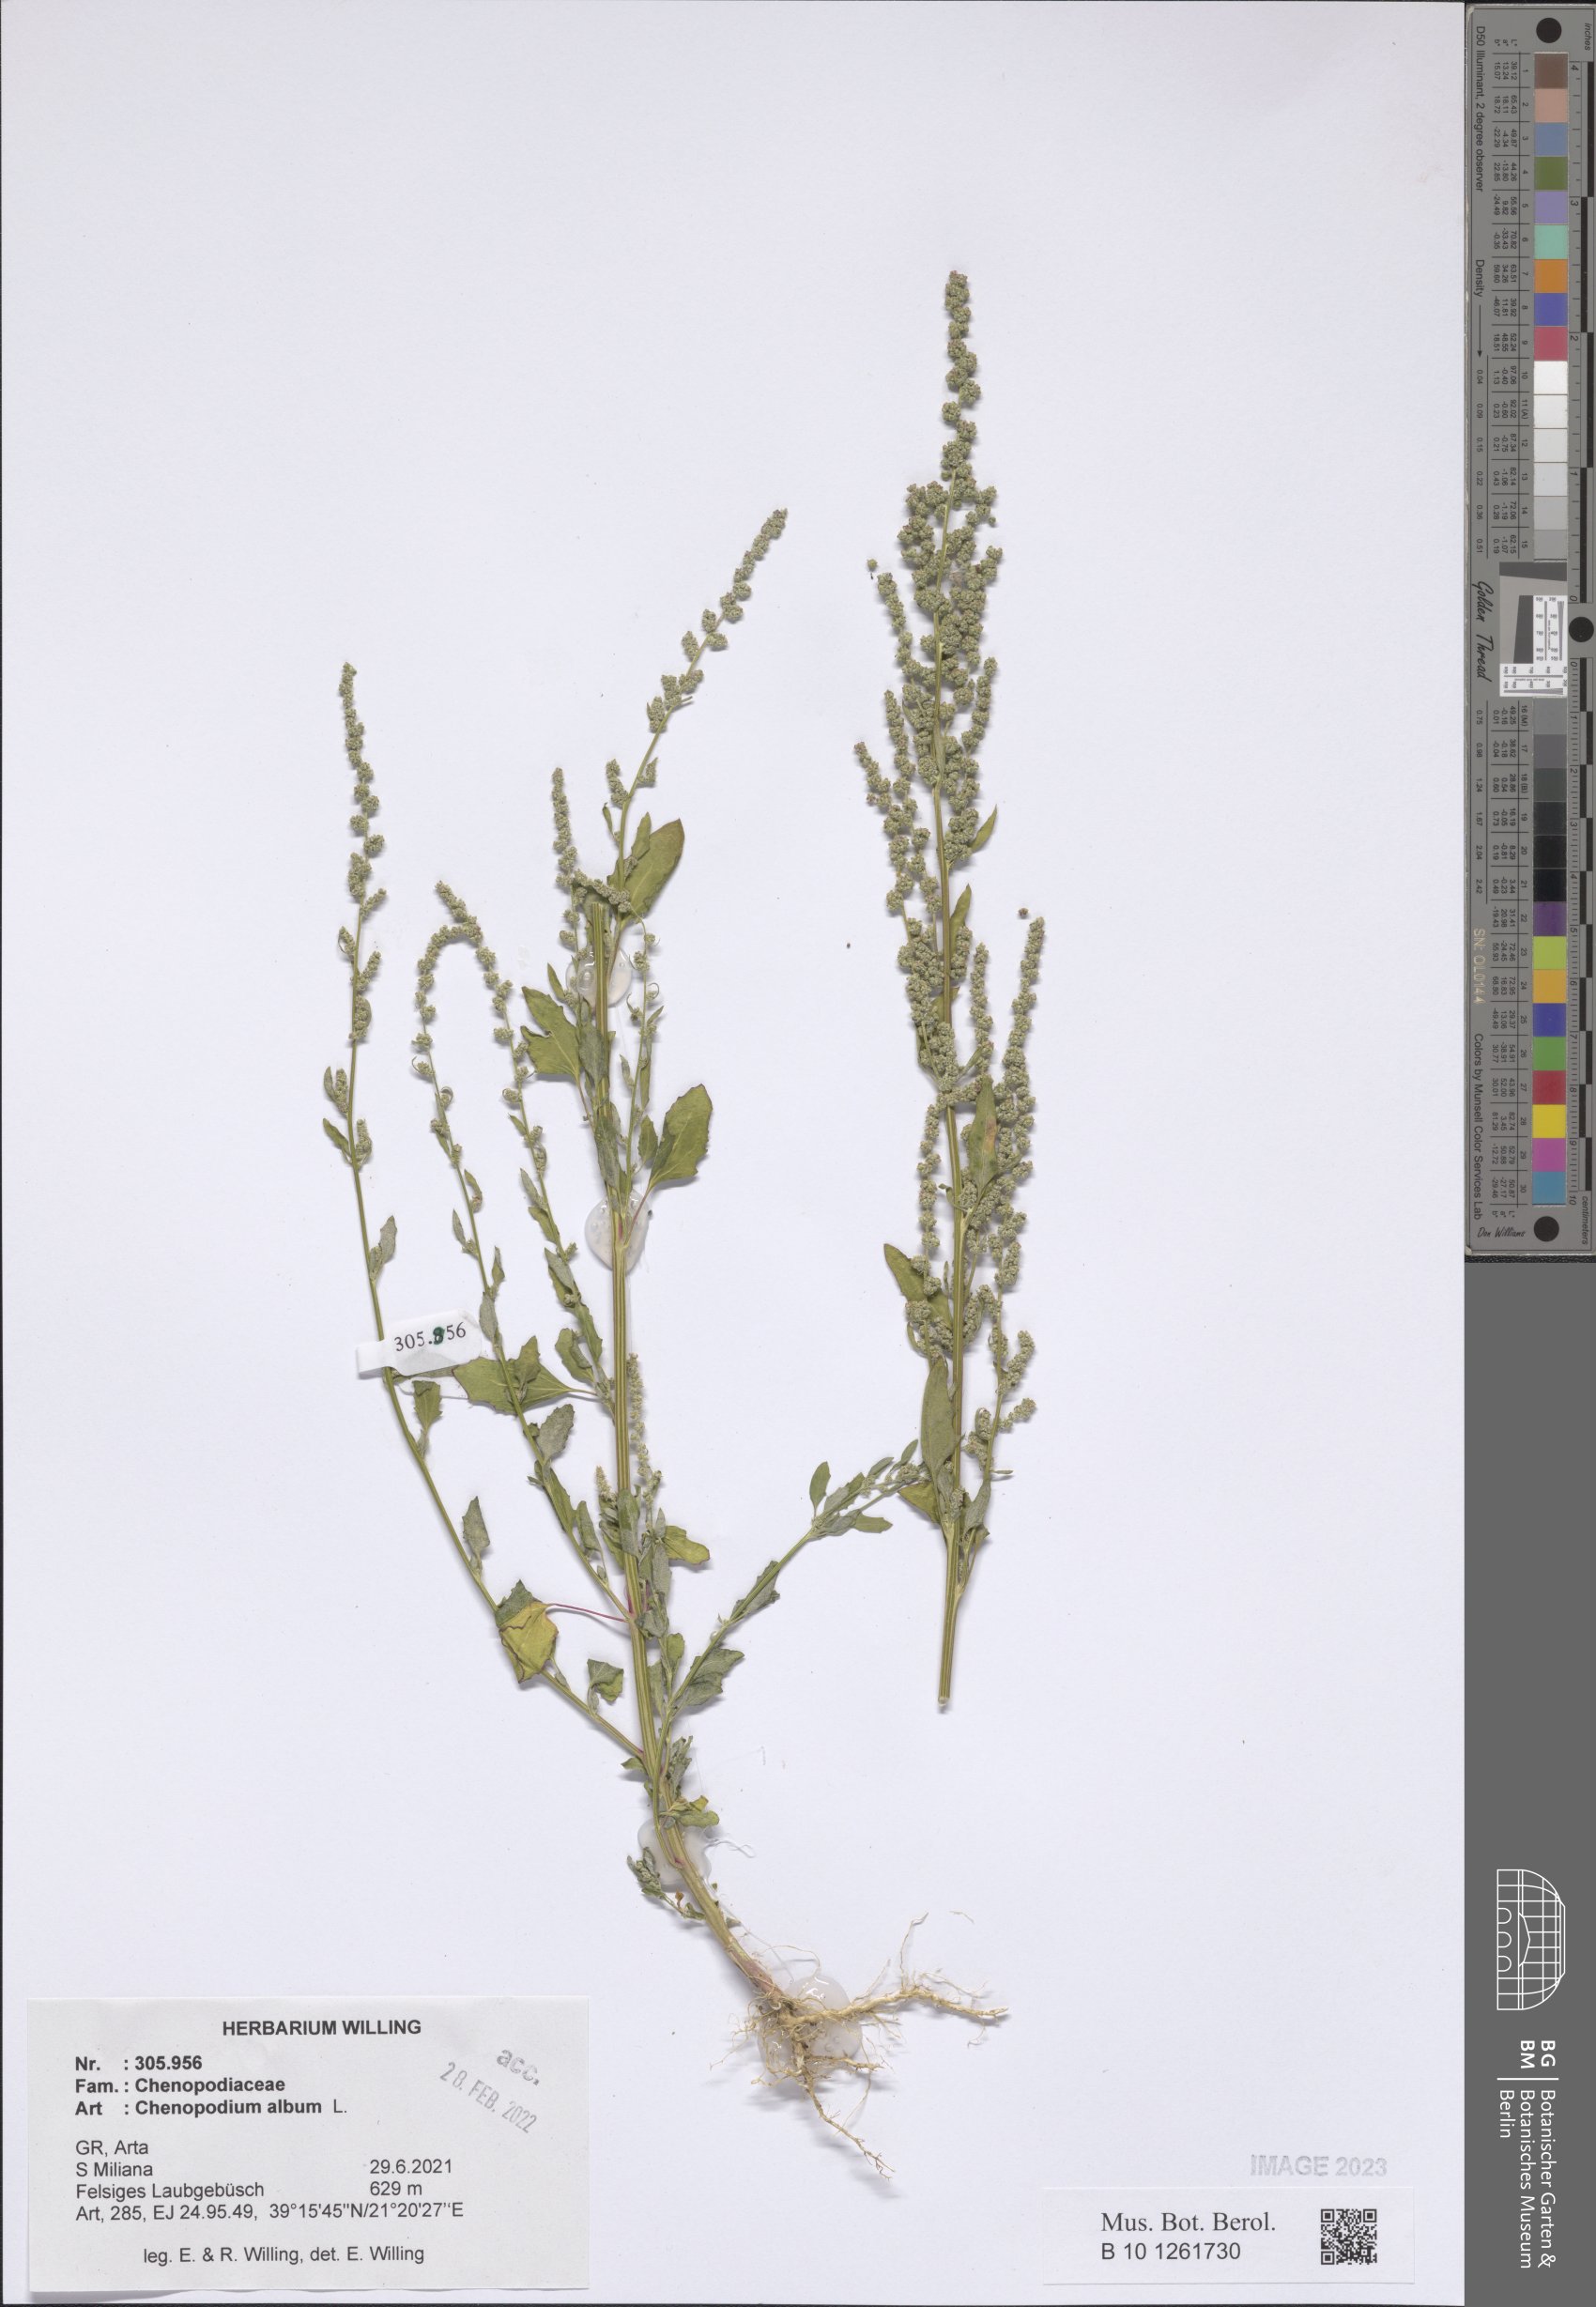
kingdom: Plantae
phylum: Tracheophyta
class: Magnoliopsida
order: Caryophyllales
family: Amaranthaceae
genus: Chenopodium
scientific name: Chenopodium album
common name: Fat-hen
